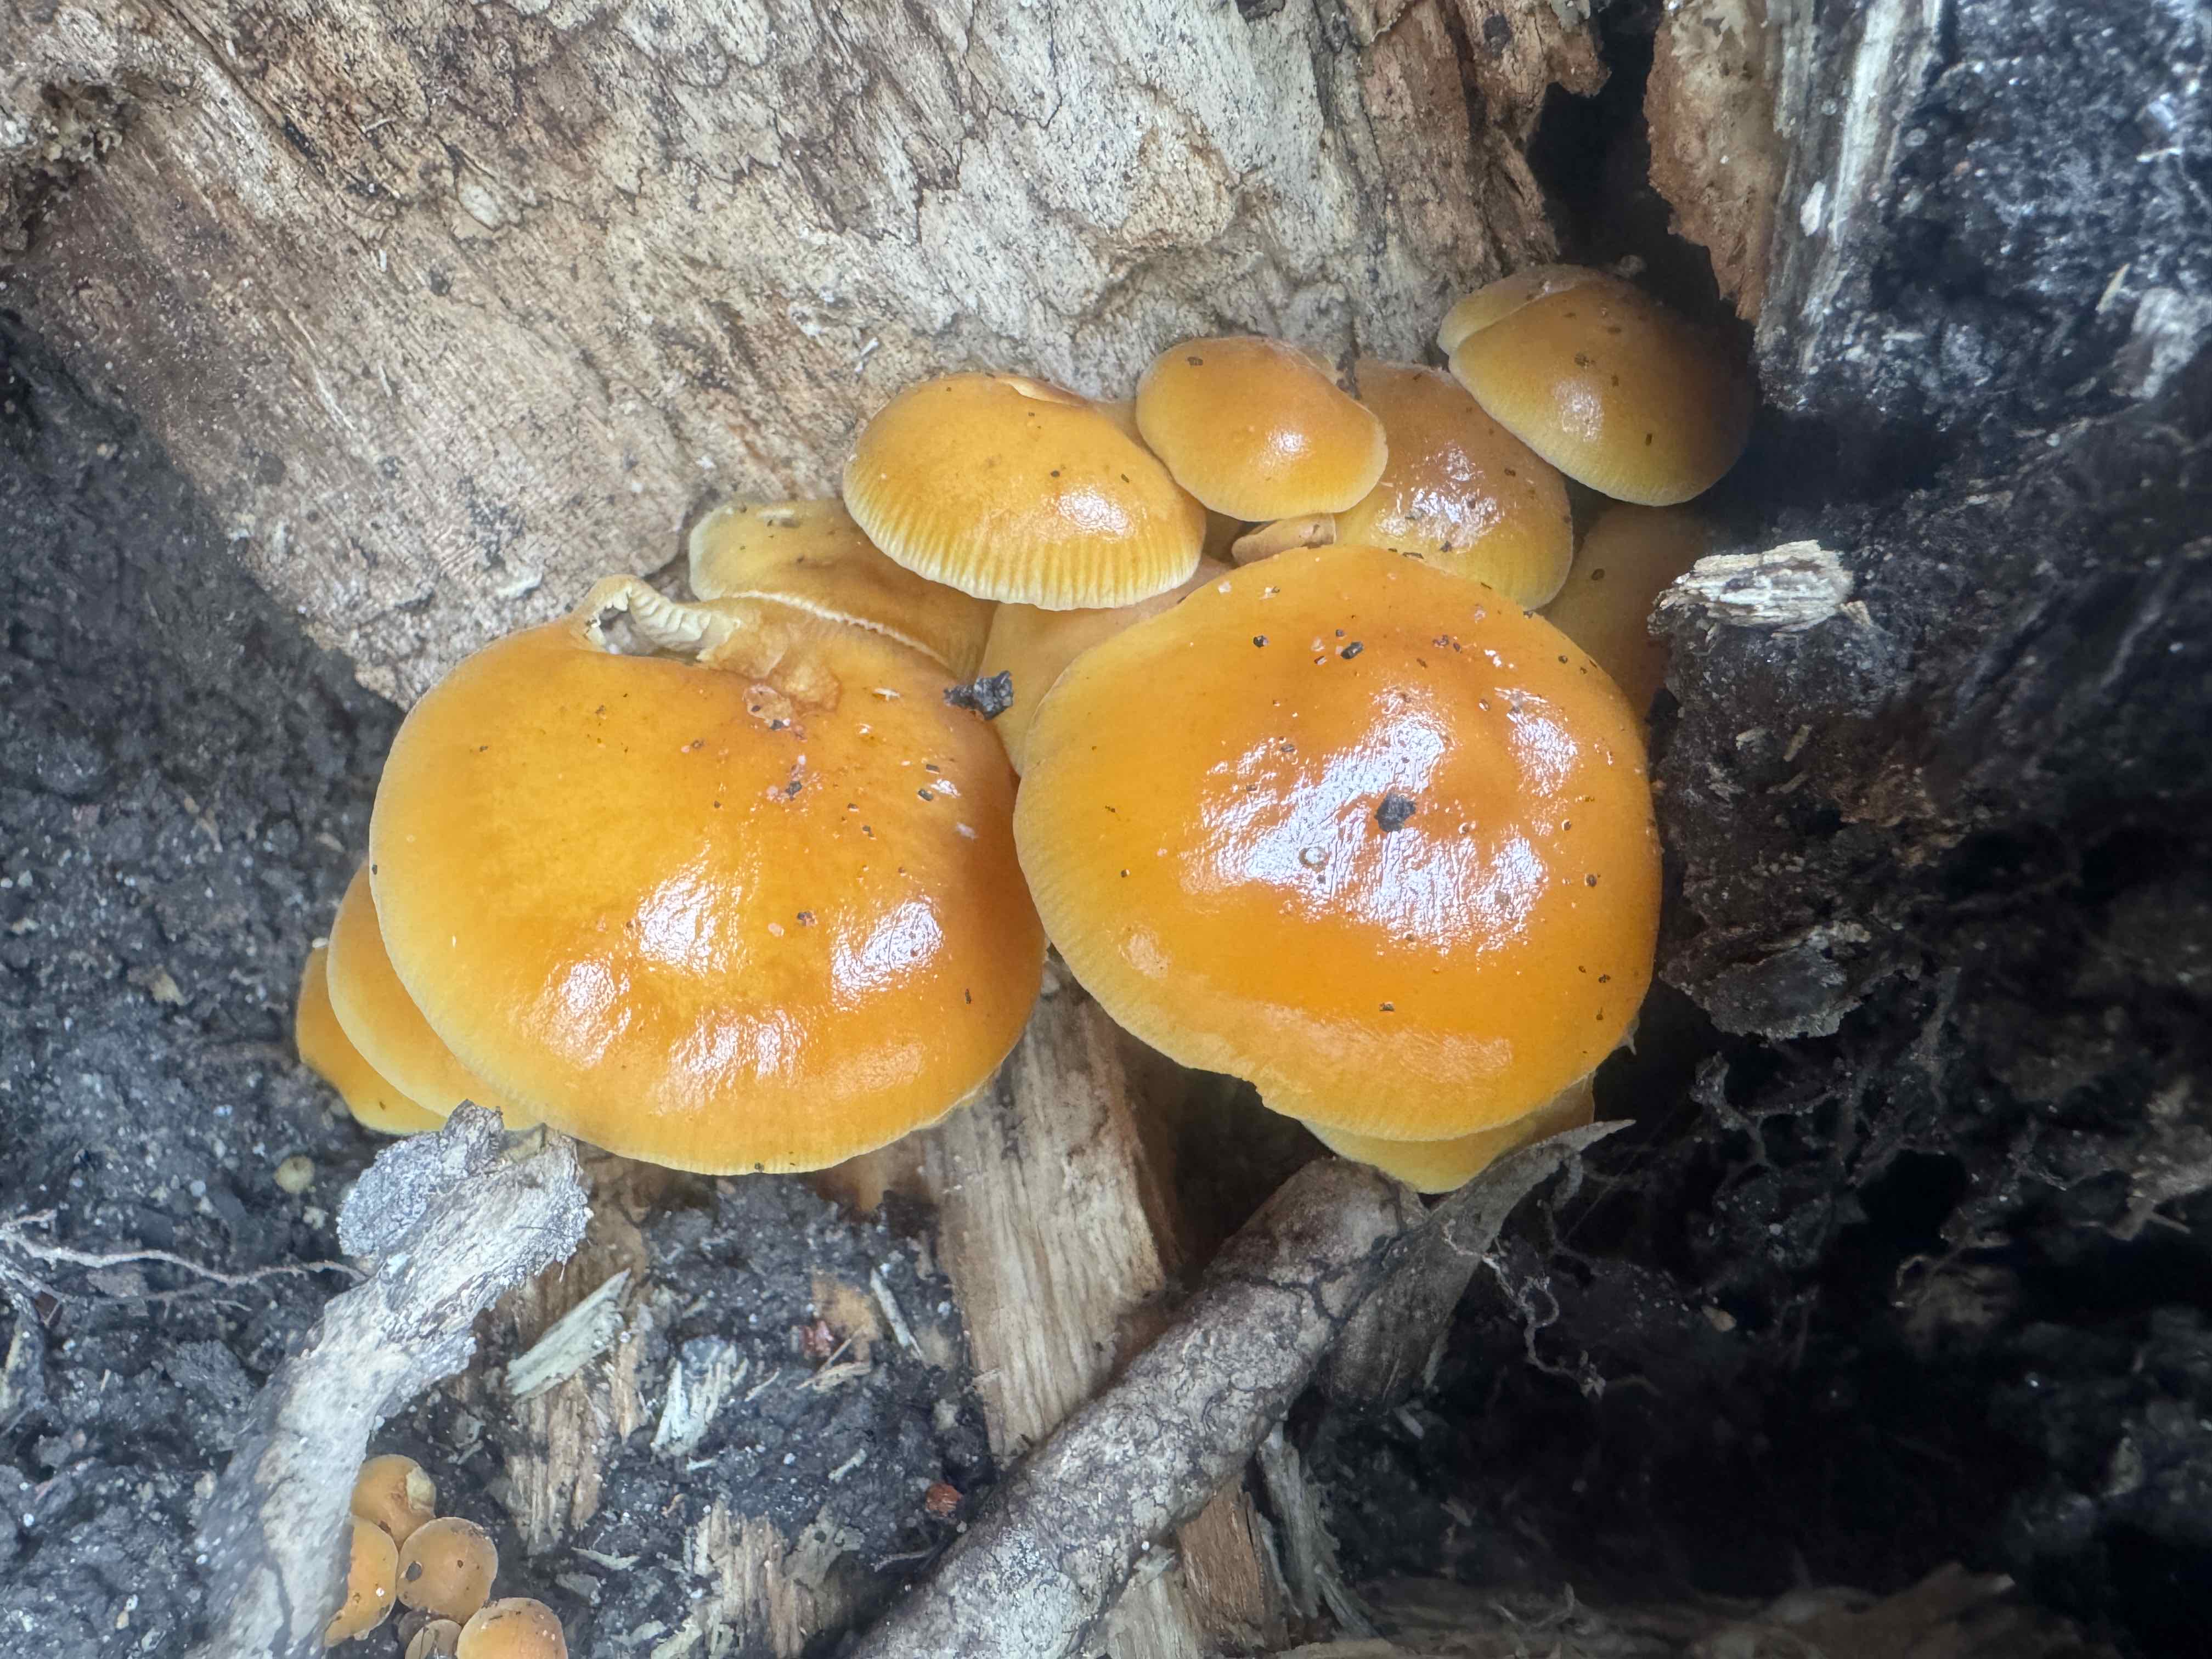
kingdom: Fungi
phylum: Basidiomycota
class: Agaricomycetes
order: Agaricales
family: Physalacriaceae
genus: Flammulina
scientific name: Flammulina velutipes
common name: gul fløjlsfod
